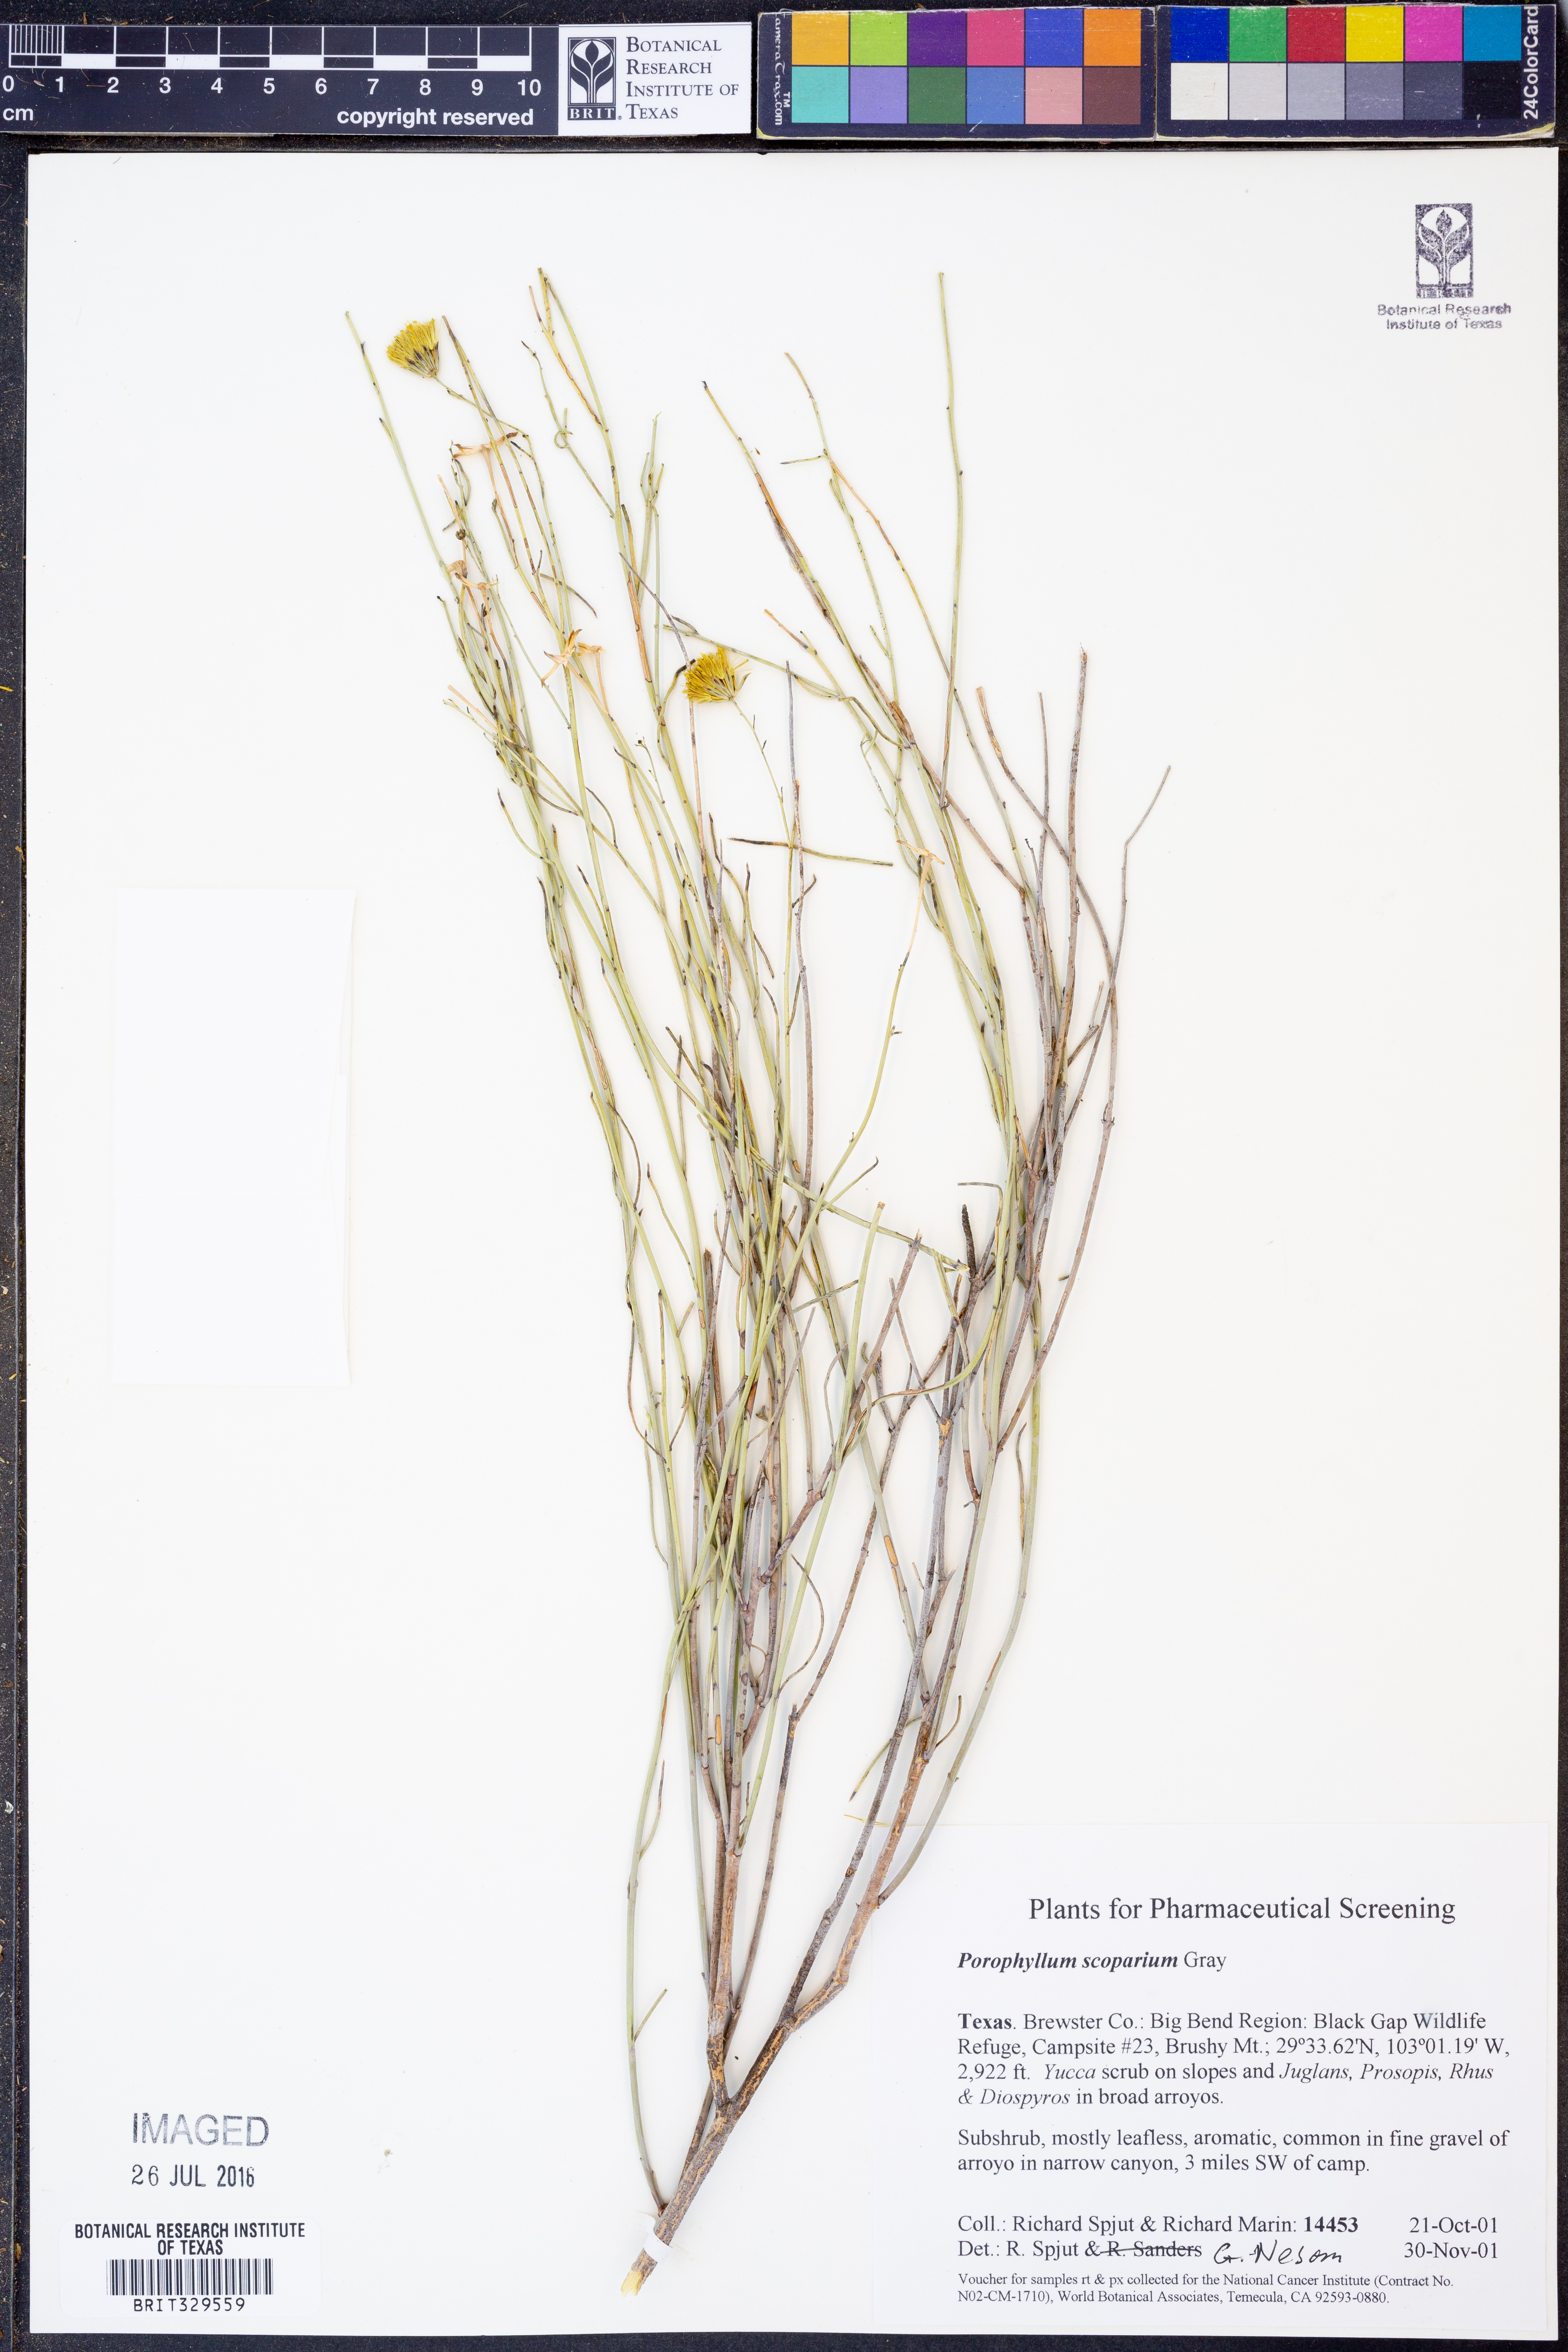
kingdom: Plantae
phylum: Tracheophyta
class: Magnoliopsida
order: Asterales
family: Asteraceae
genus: Porophyllum
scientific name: Porophyllum scoparium
